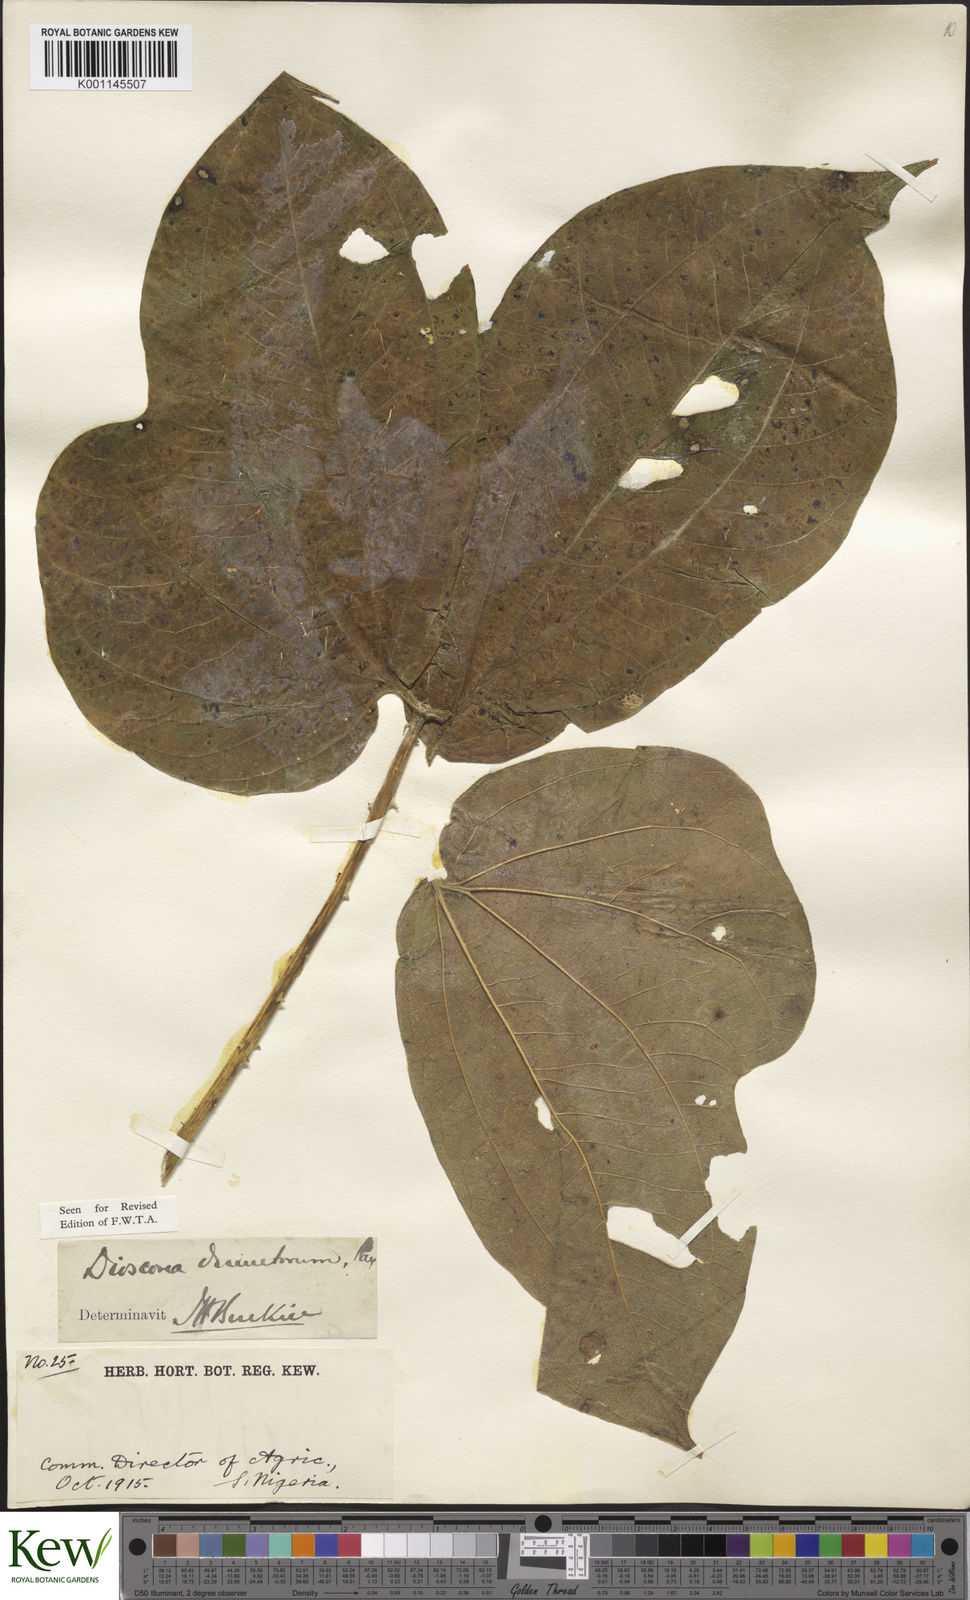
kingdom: Plantae
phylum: Tracheophyta
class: Liliopsida
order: Dioscoreales
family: Dioscoreaceae
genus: Dioscorea
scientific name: Dioscorea dumetorum
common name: African bitter yam
